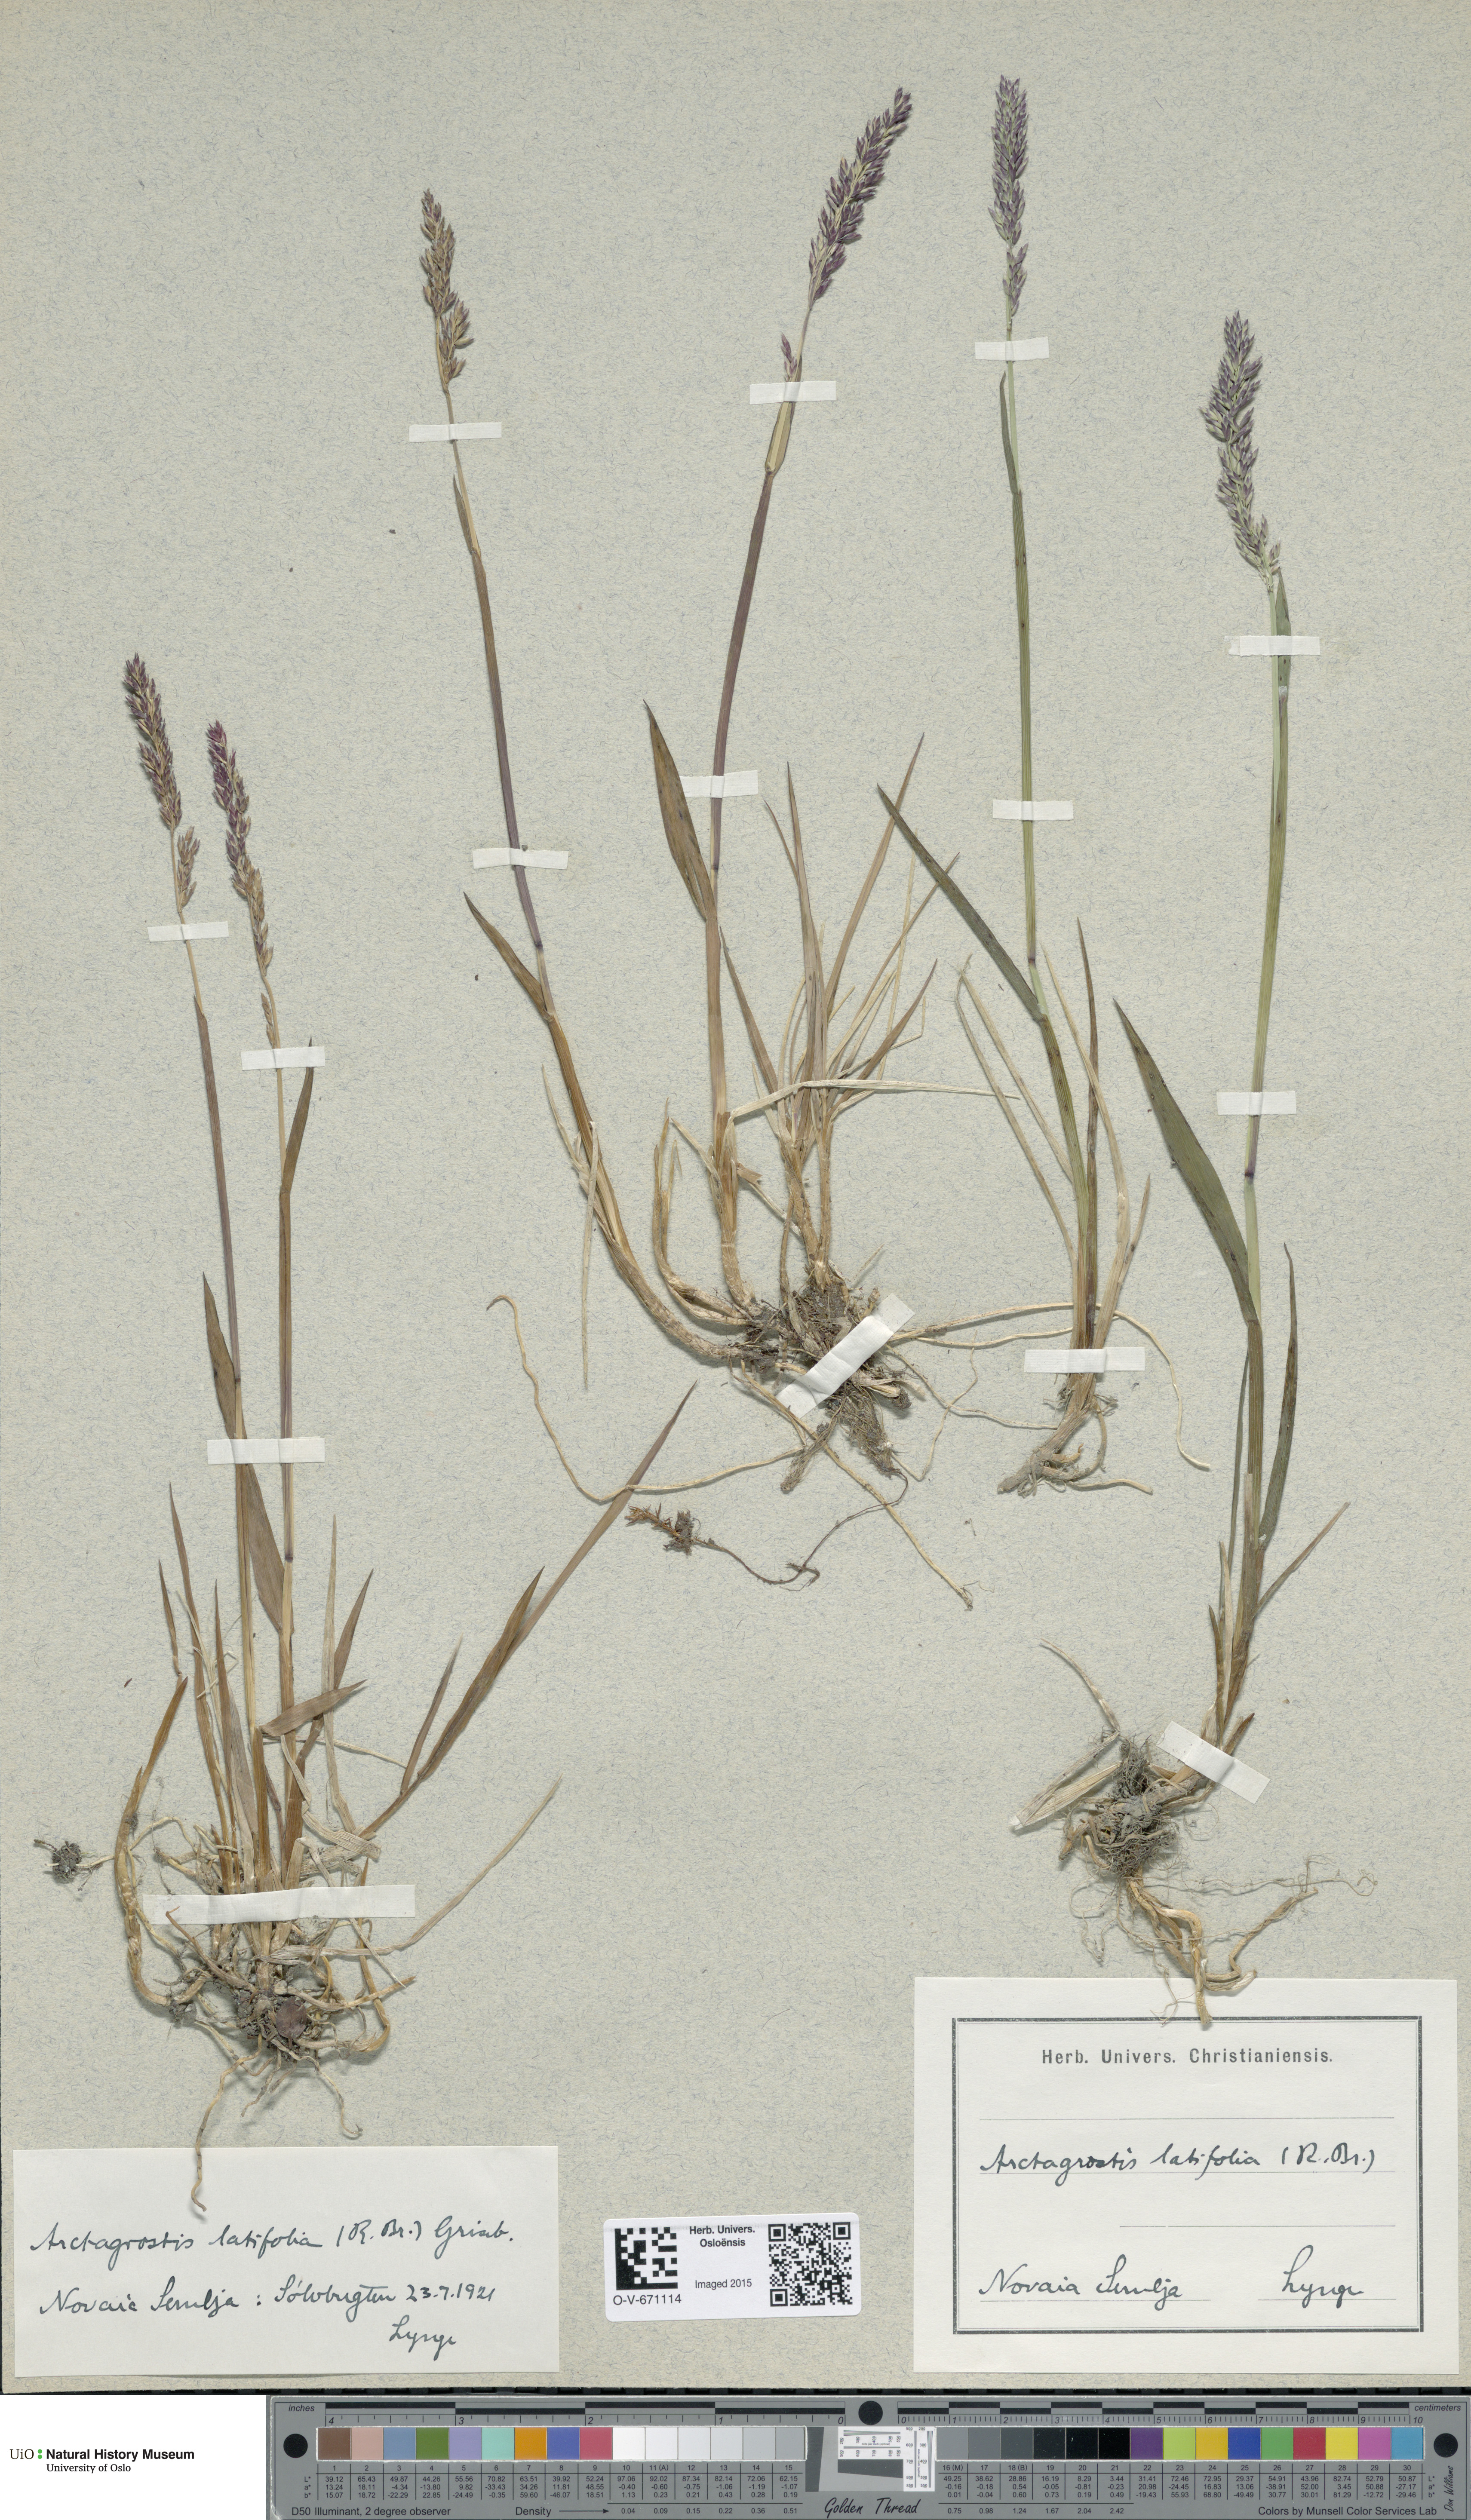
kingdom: Plantae
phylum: Tracheophyta
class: Liliopsida
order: Poales
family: Poaceae
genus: Arctagrostis
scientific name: Arctagrostis latifolia
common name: Arctic grass
